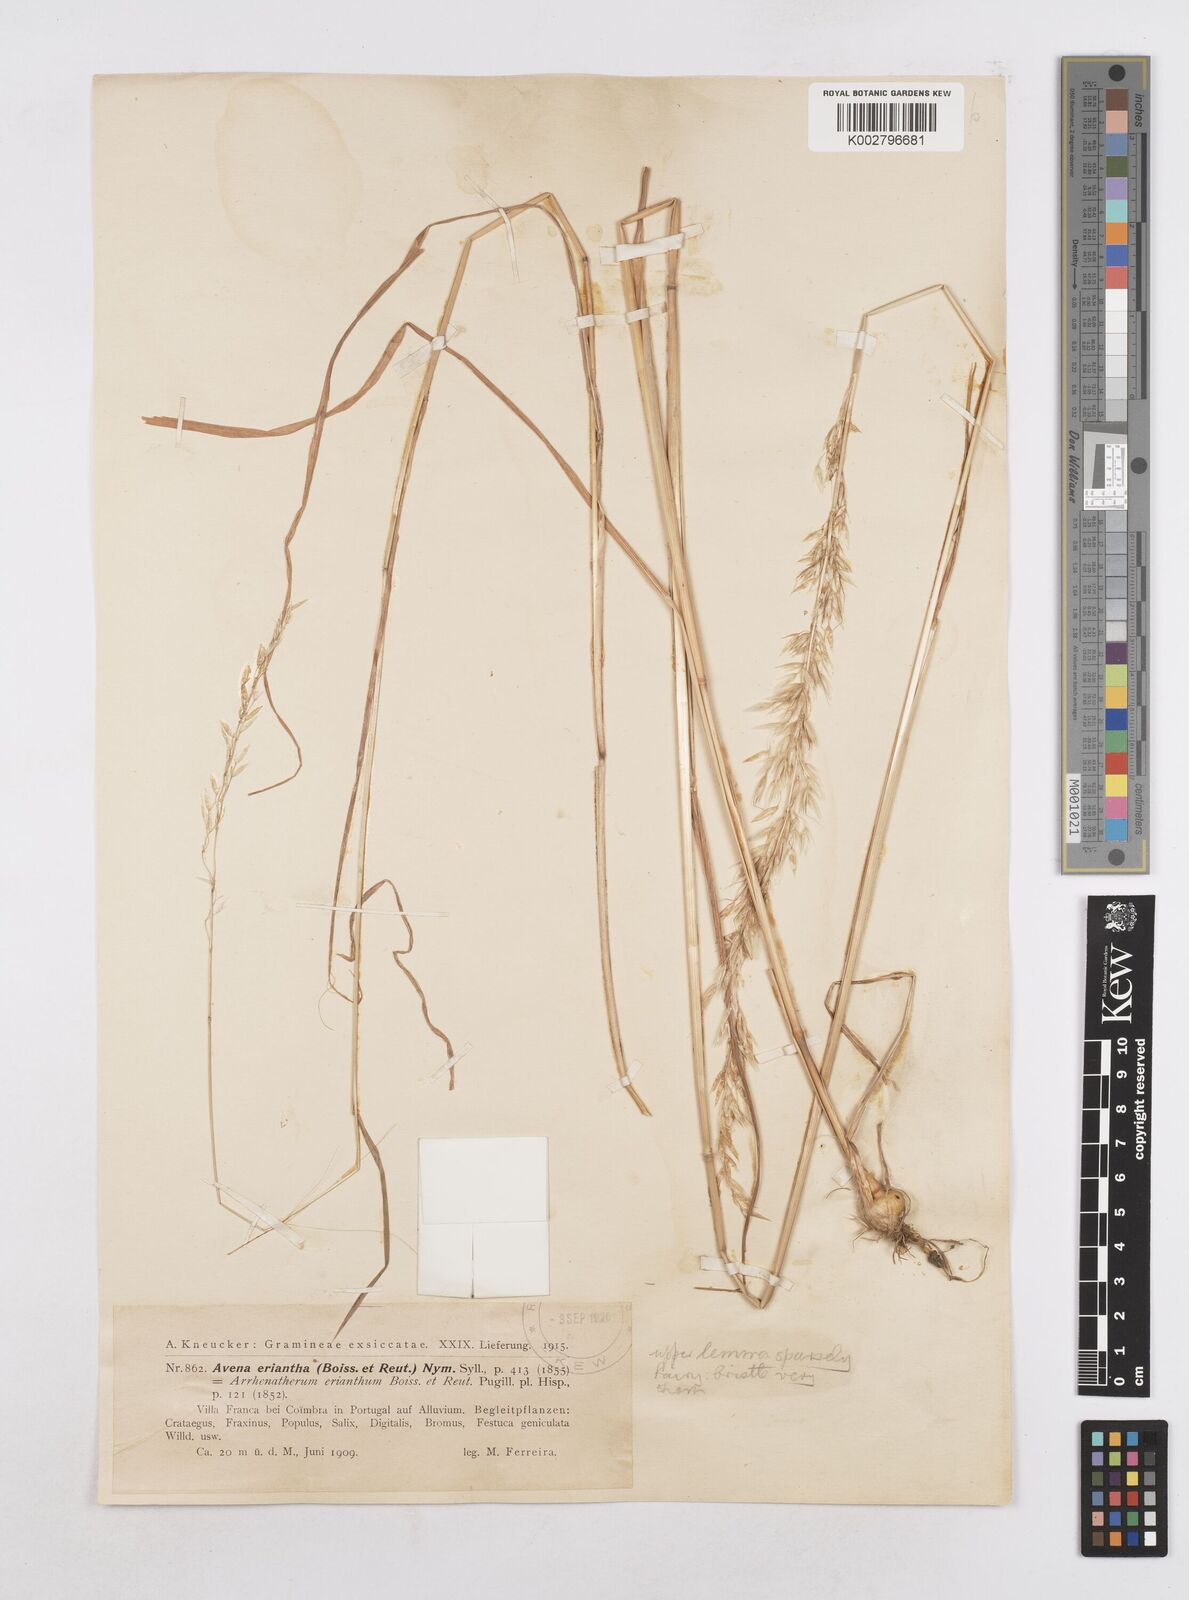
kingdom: Plantae
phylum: Tracheophyta
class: Liliopsida
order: Poales
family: Poaceae
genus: Arrhenatherum
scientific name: Arrhenatherum album
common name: Tall oat grass
